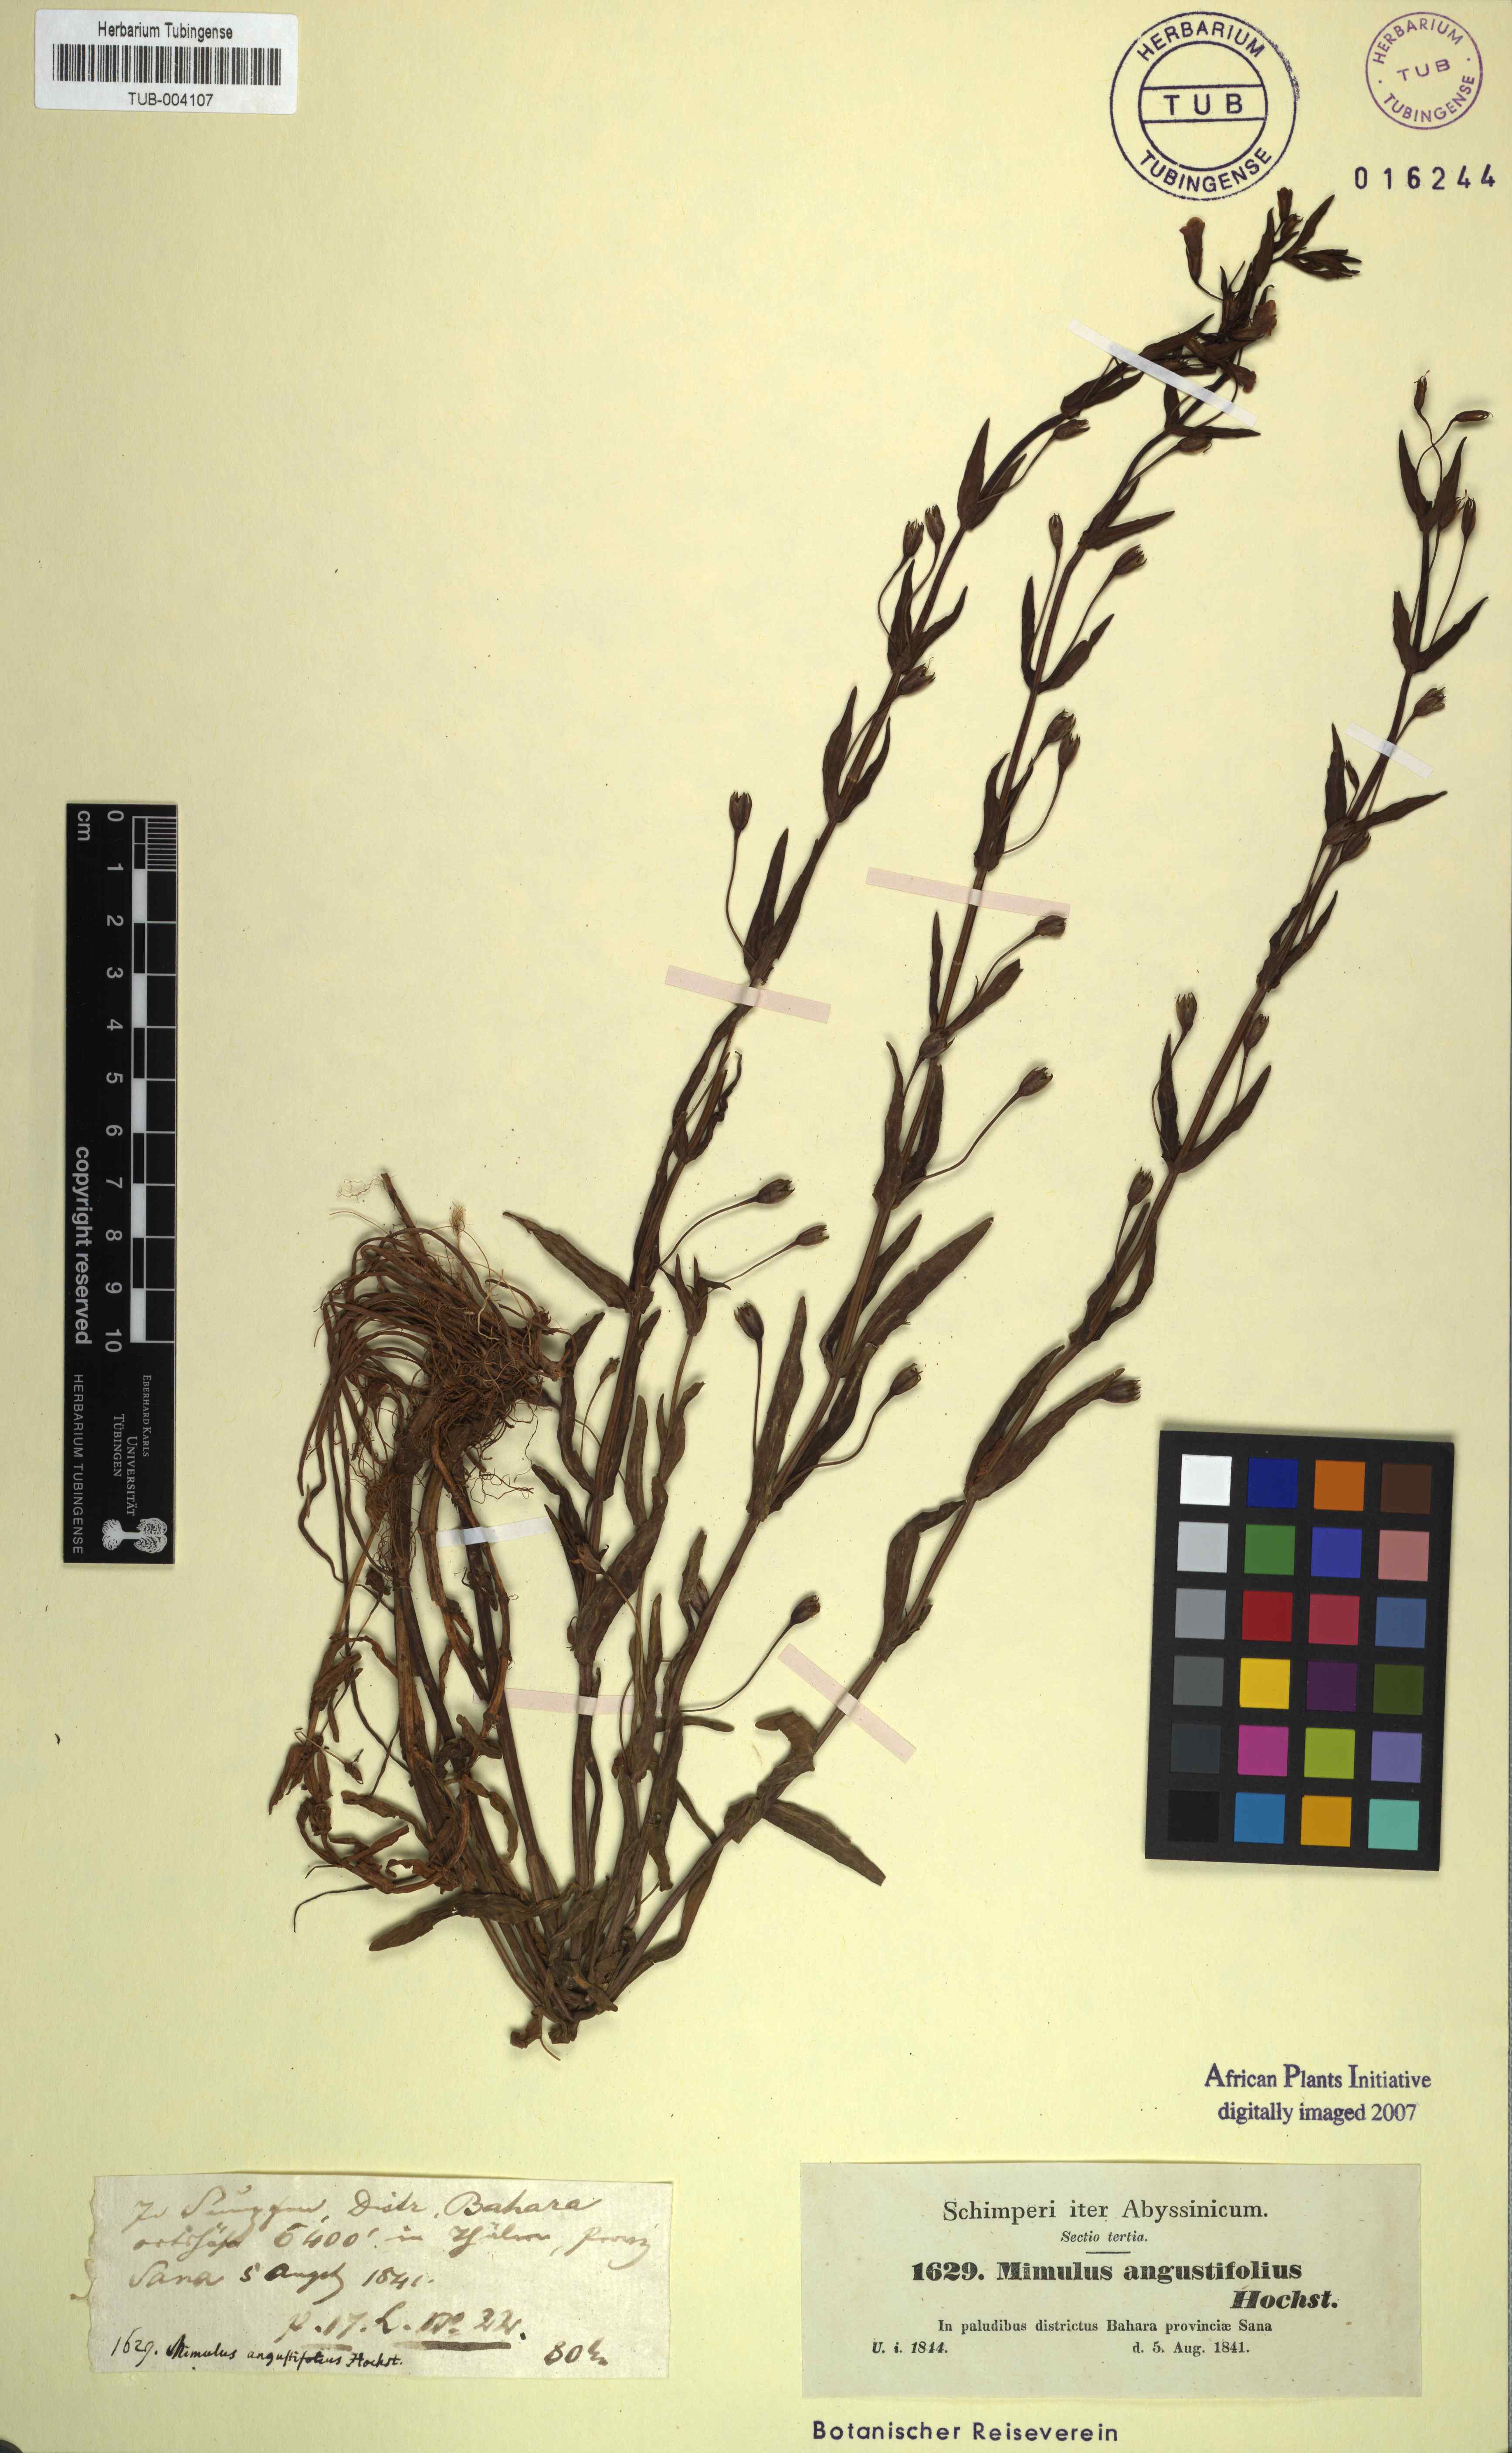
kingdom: Plantae
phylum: Tracheophyta
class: Magnoliopsida
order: Lamiales
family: Phrymaceae
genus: Mimulus
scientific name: Mimulus strictus
